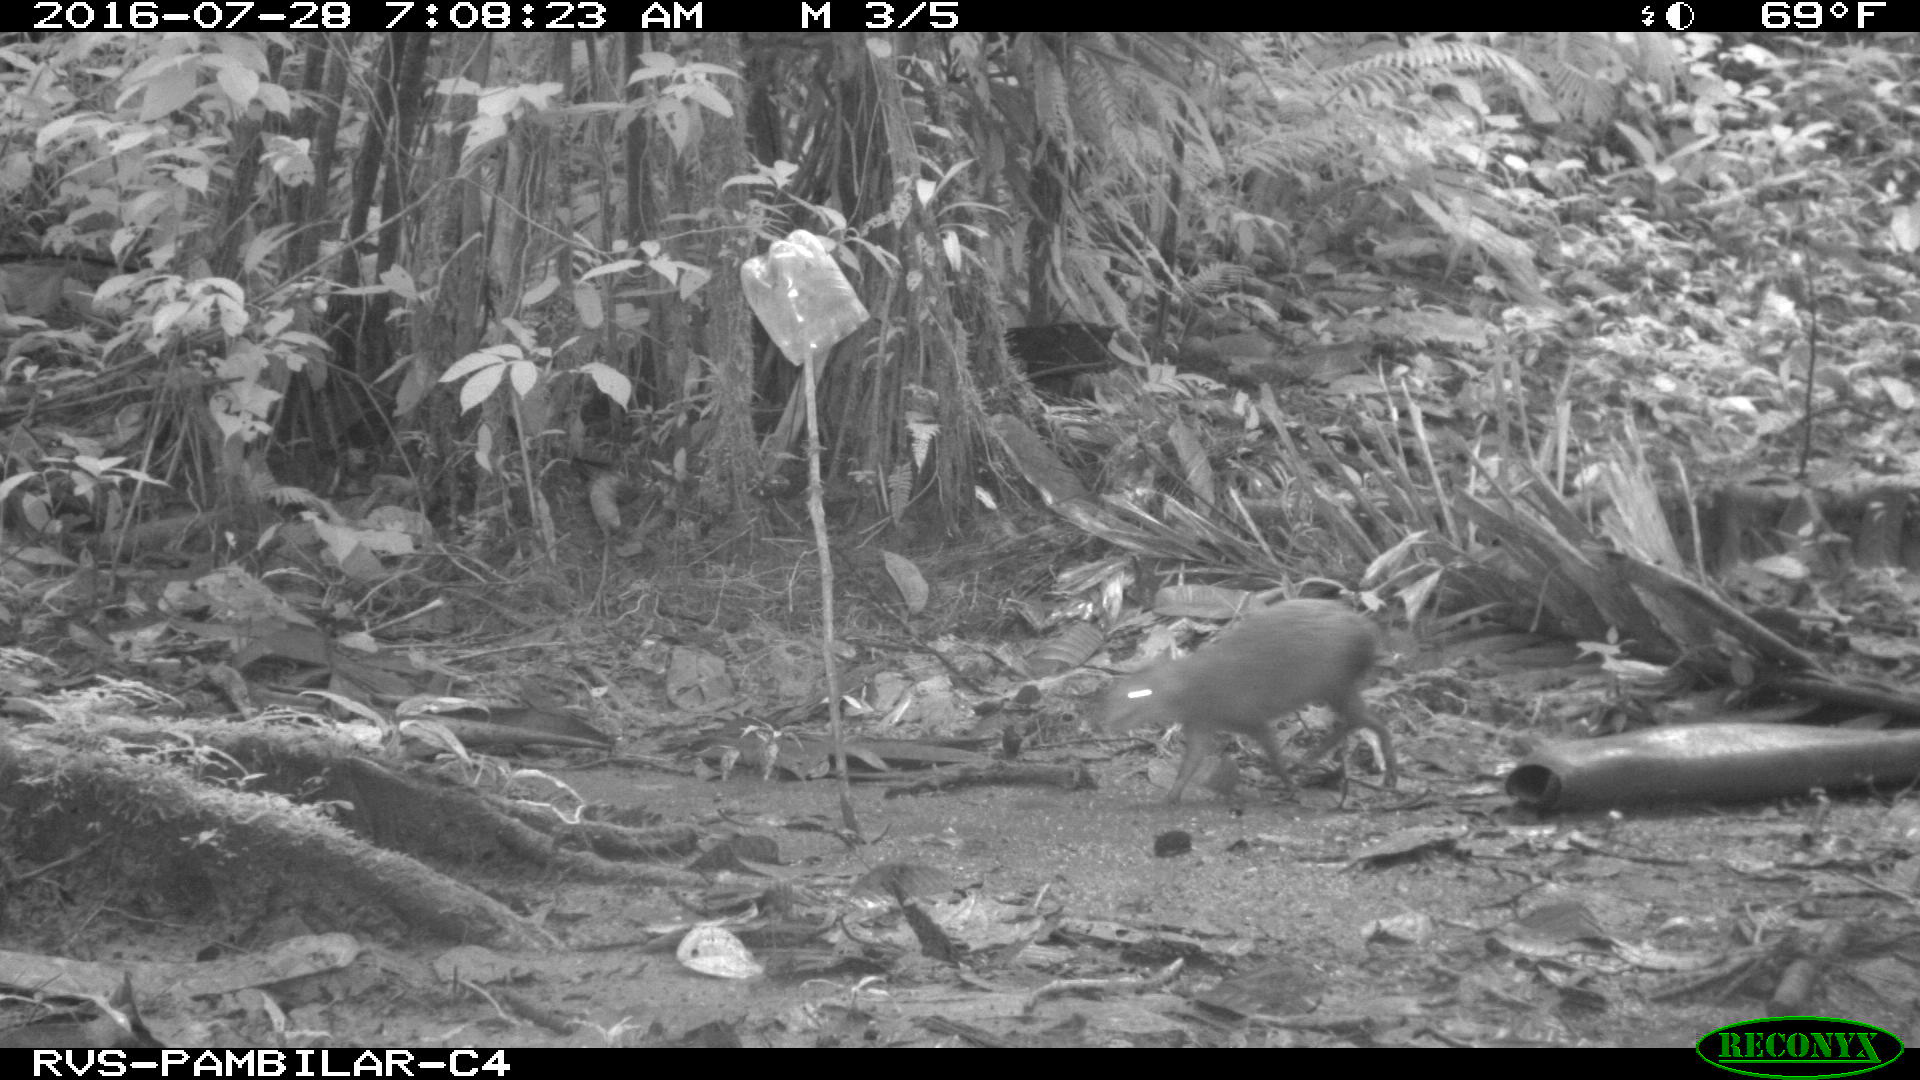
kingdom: Animalia
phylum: Chordata
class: Mammalia
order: Rodentia
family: Dasyproctidae
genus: Dasyprocta
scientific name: Dasyprocta punctata
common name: Central american agouti
